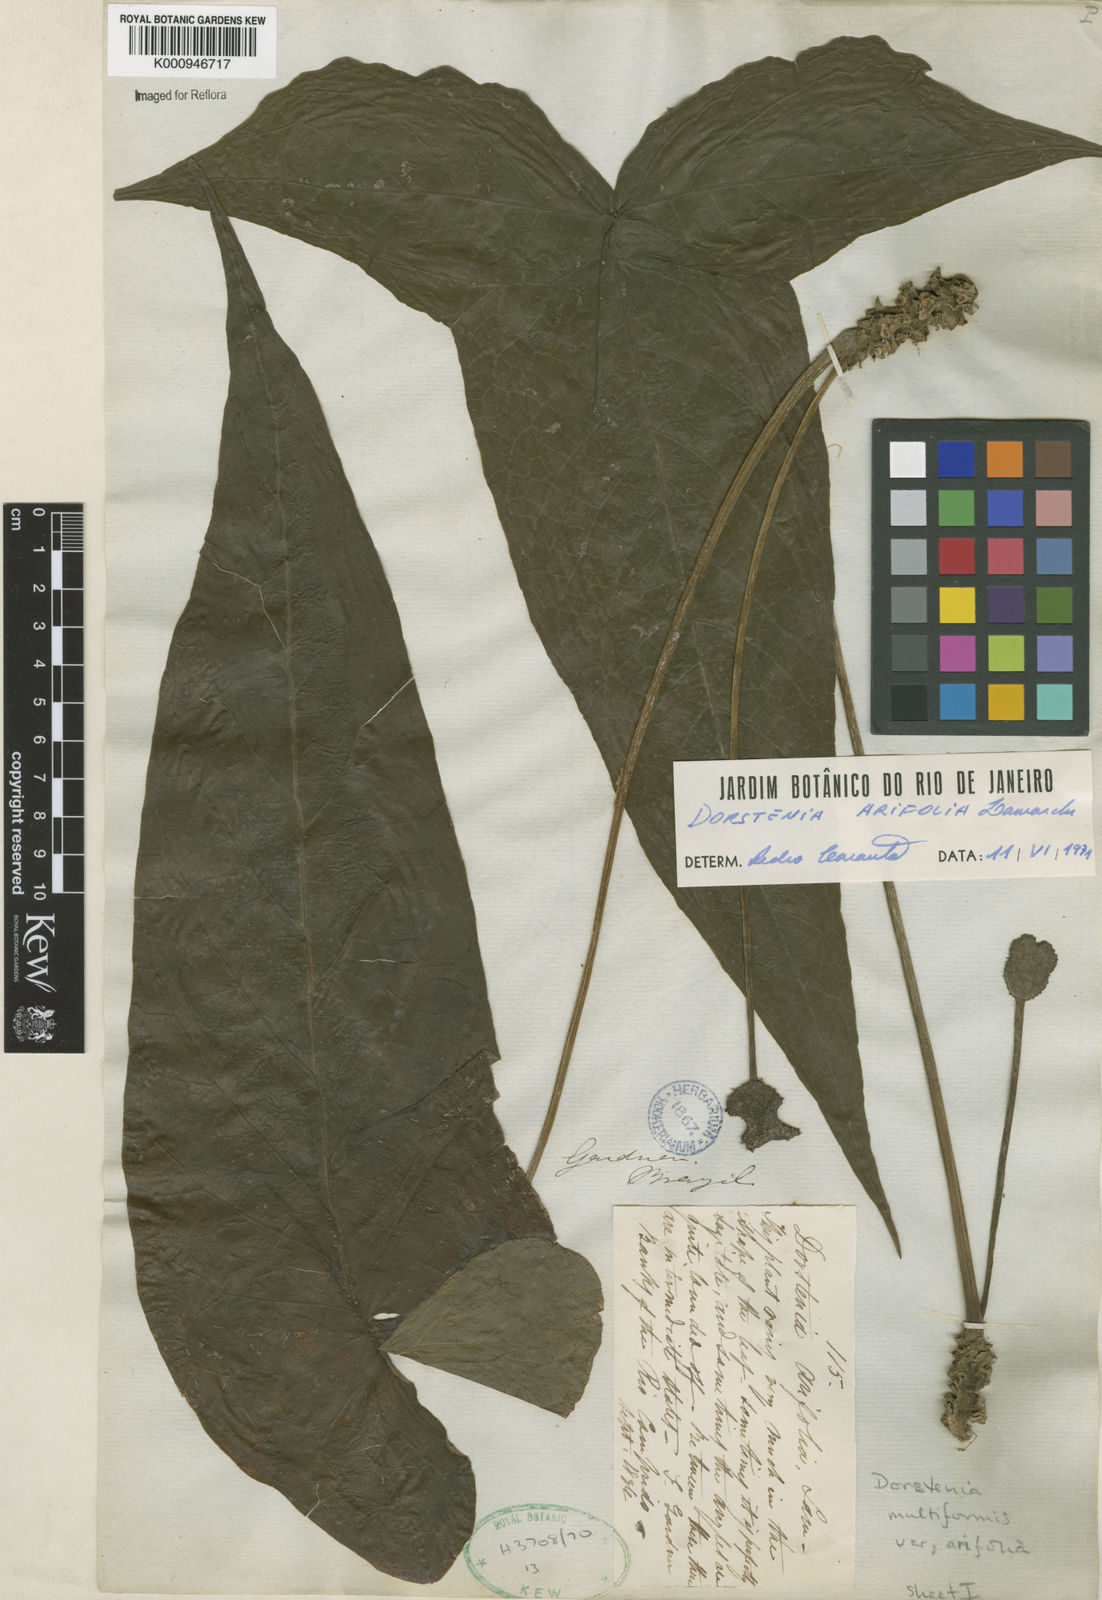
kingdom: Plantae
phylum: Tracheophyta
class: Magnoliopsida
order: Rosales
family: Moraceae
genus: Dorstenia
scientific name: Dorstenia arifolia
